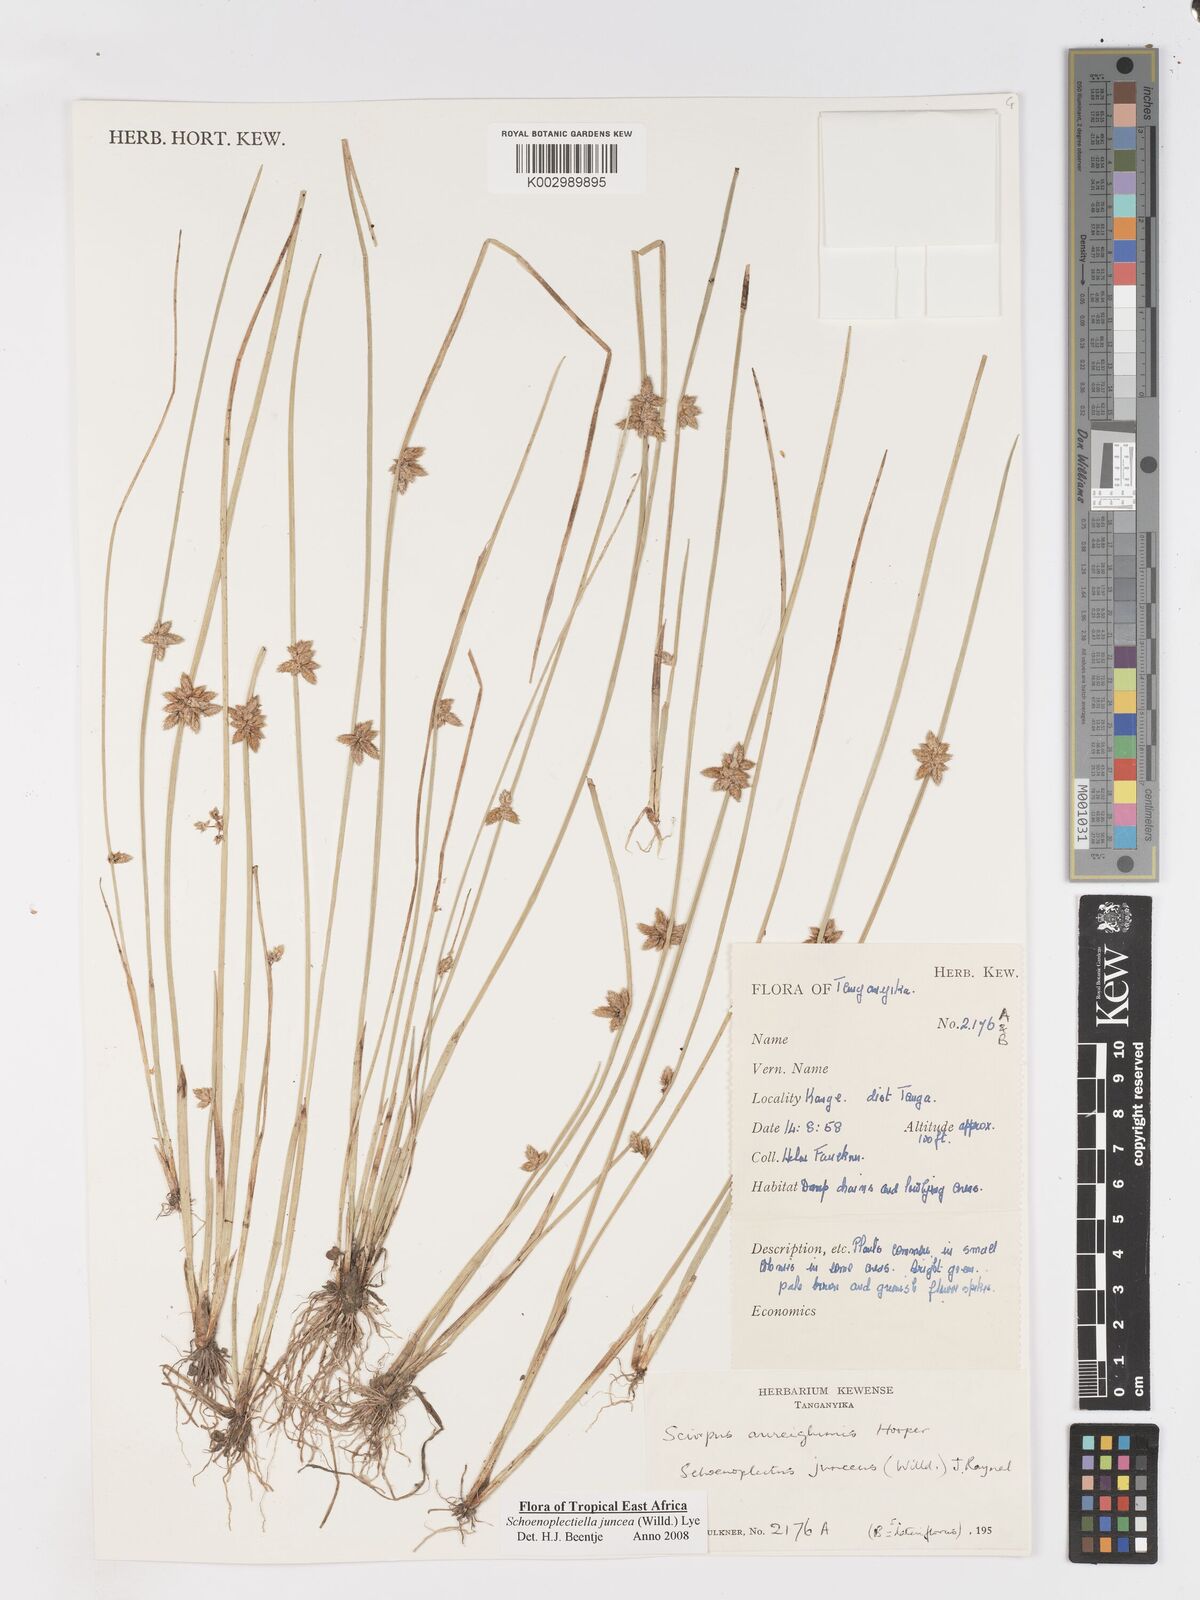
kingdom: Plantae
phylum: Tracheophyta
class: Liliopsida
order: Poales
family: Cyperaceae
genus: Schoenoplectiella
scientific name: Schoenoplectiella juncea
